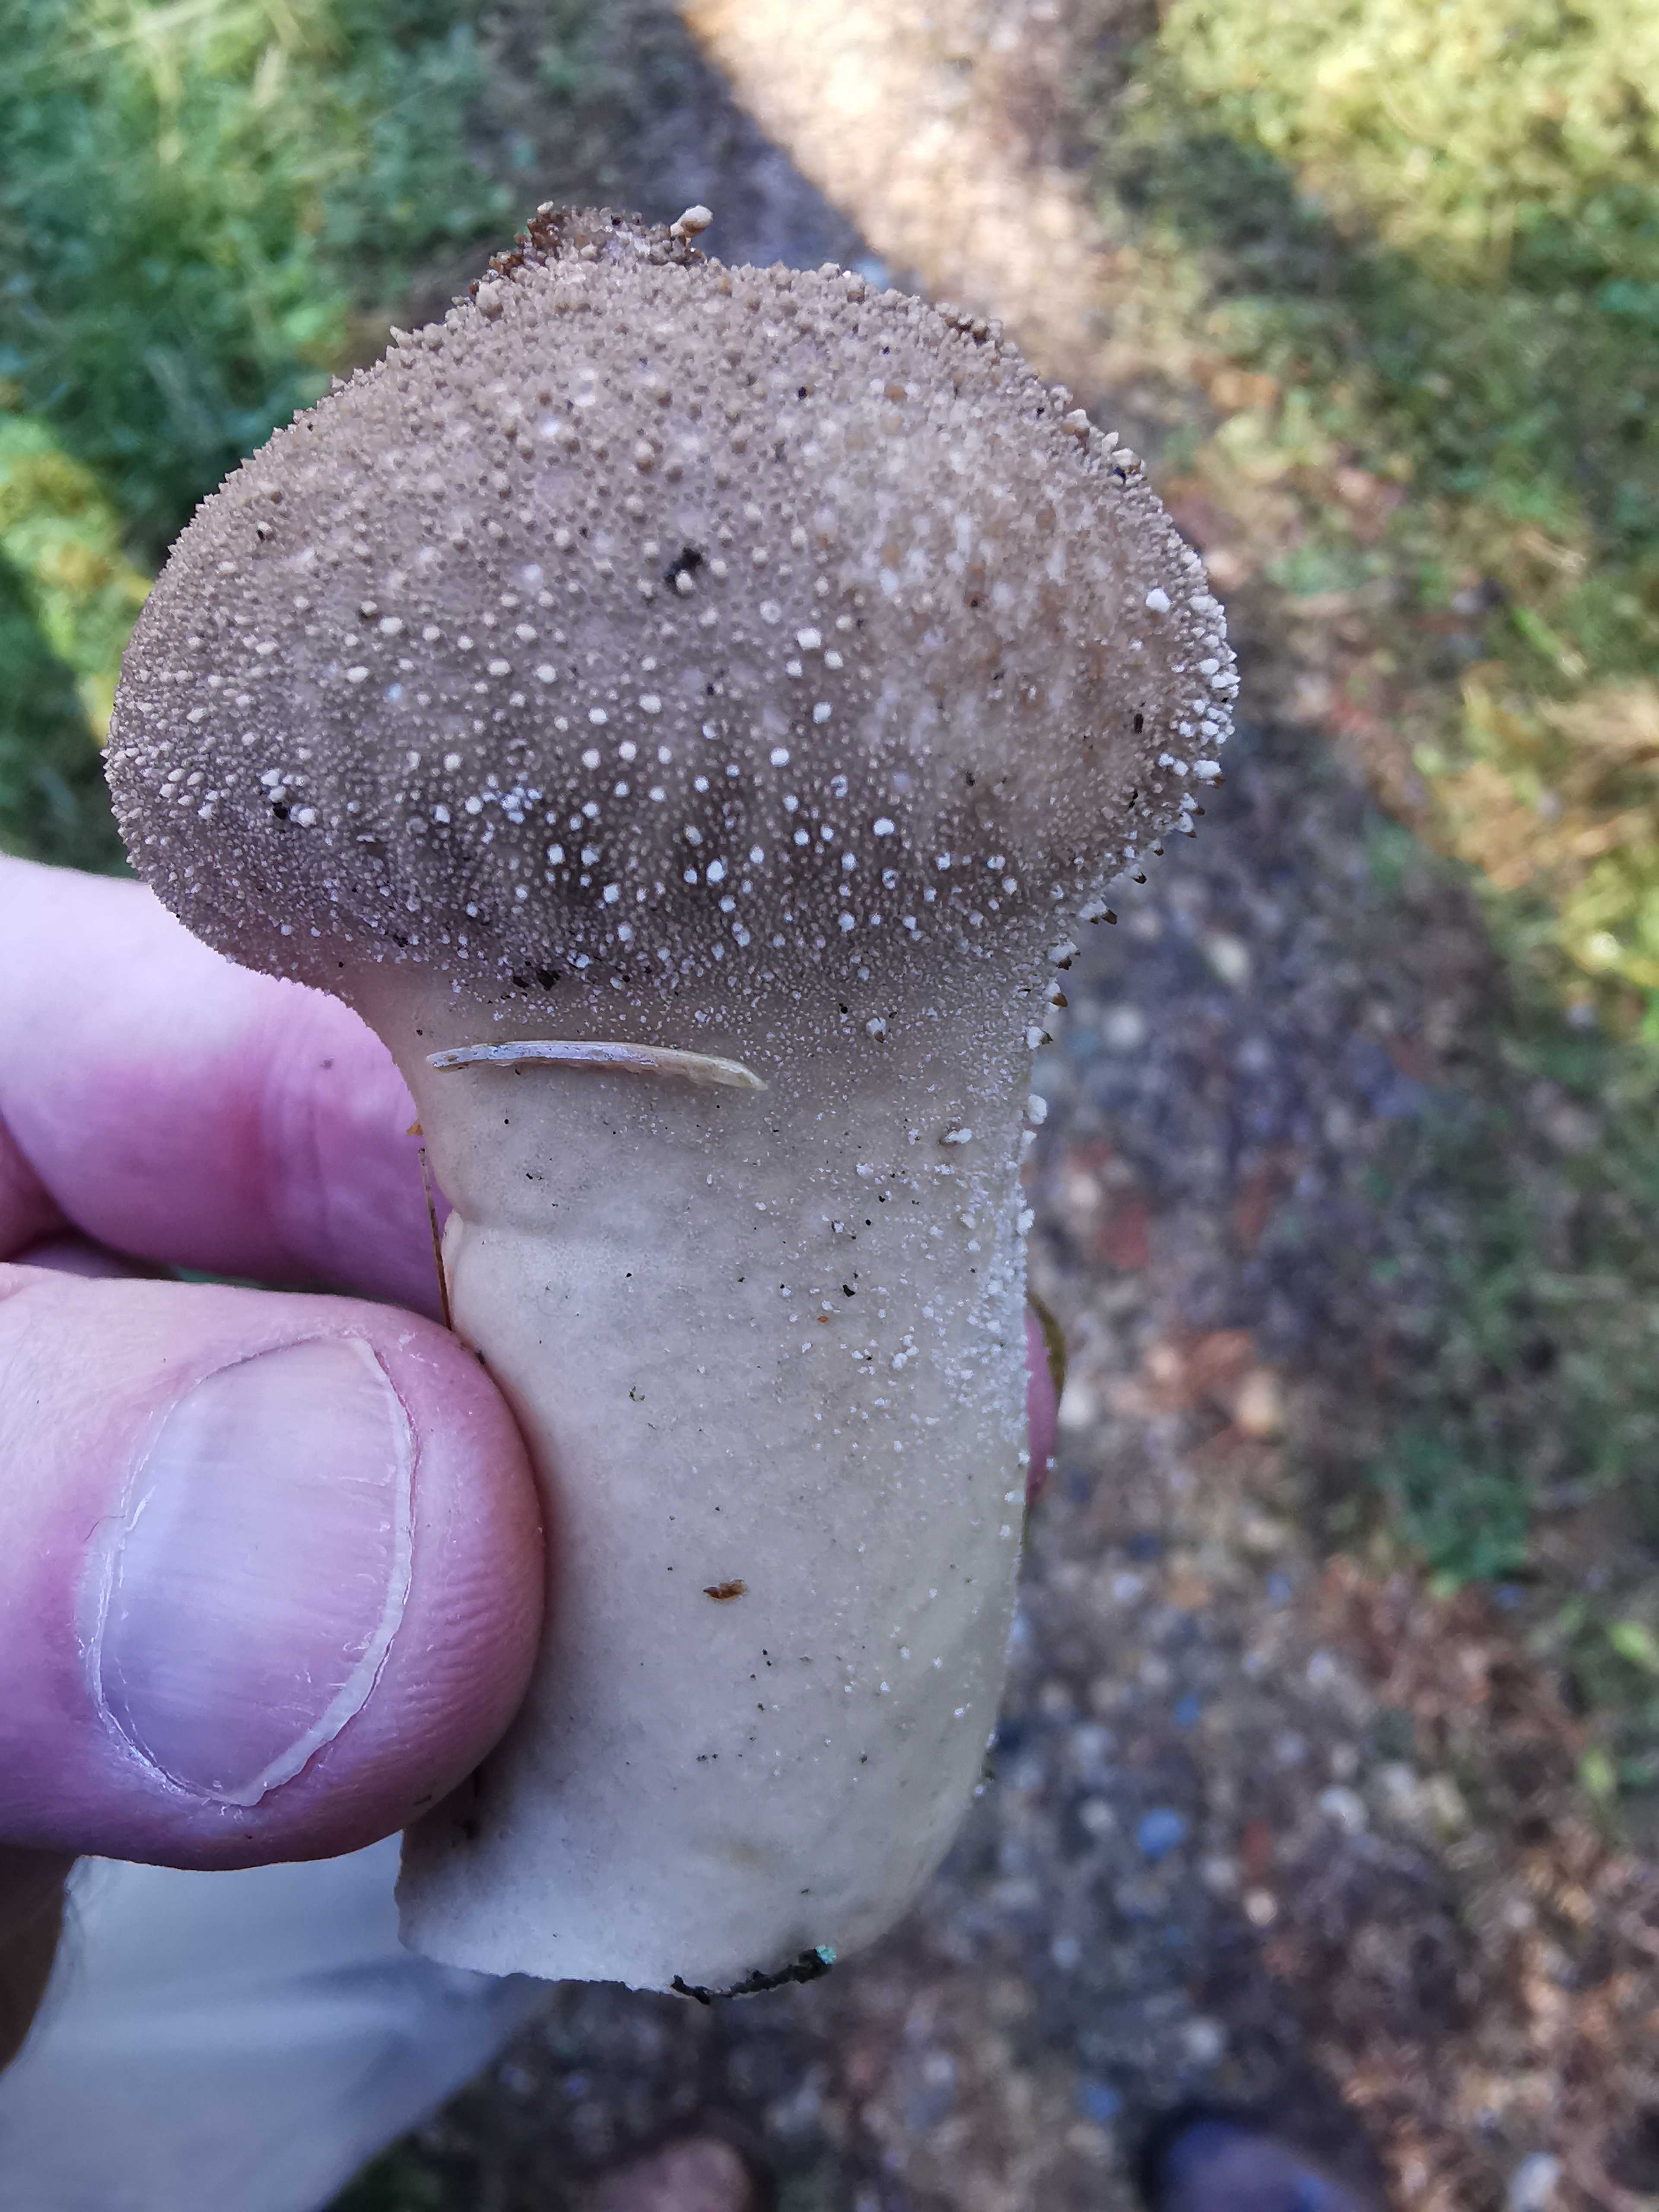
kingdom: Fungi
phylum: Basidiomycota
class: Agaricomycetes
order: Agaricales
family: Lycoperdaceae
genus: Lycoperdon
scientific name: Lycoperdon nigrescens
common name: sortagtig støvbold
